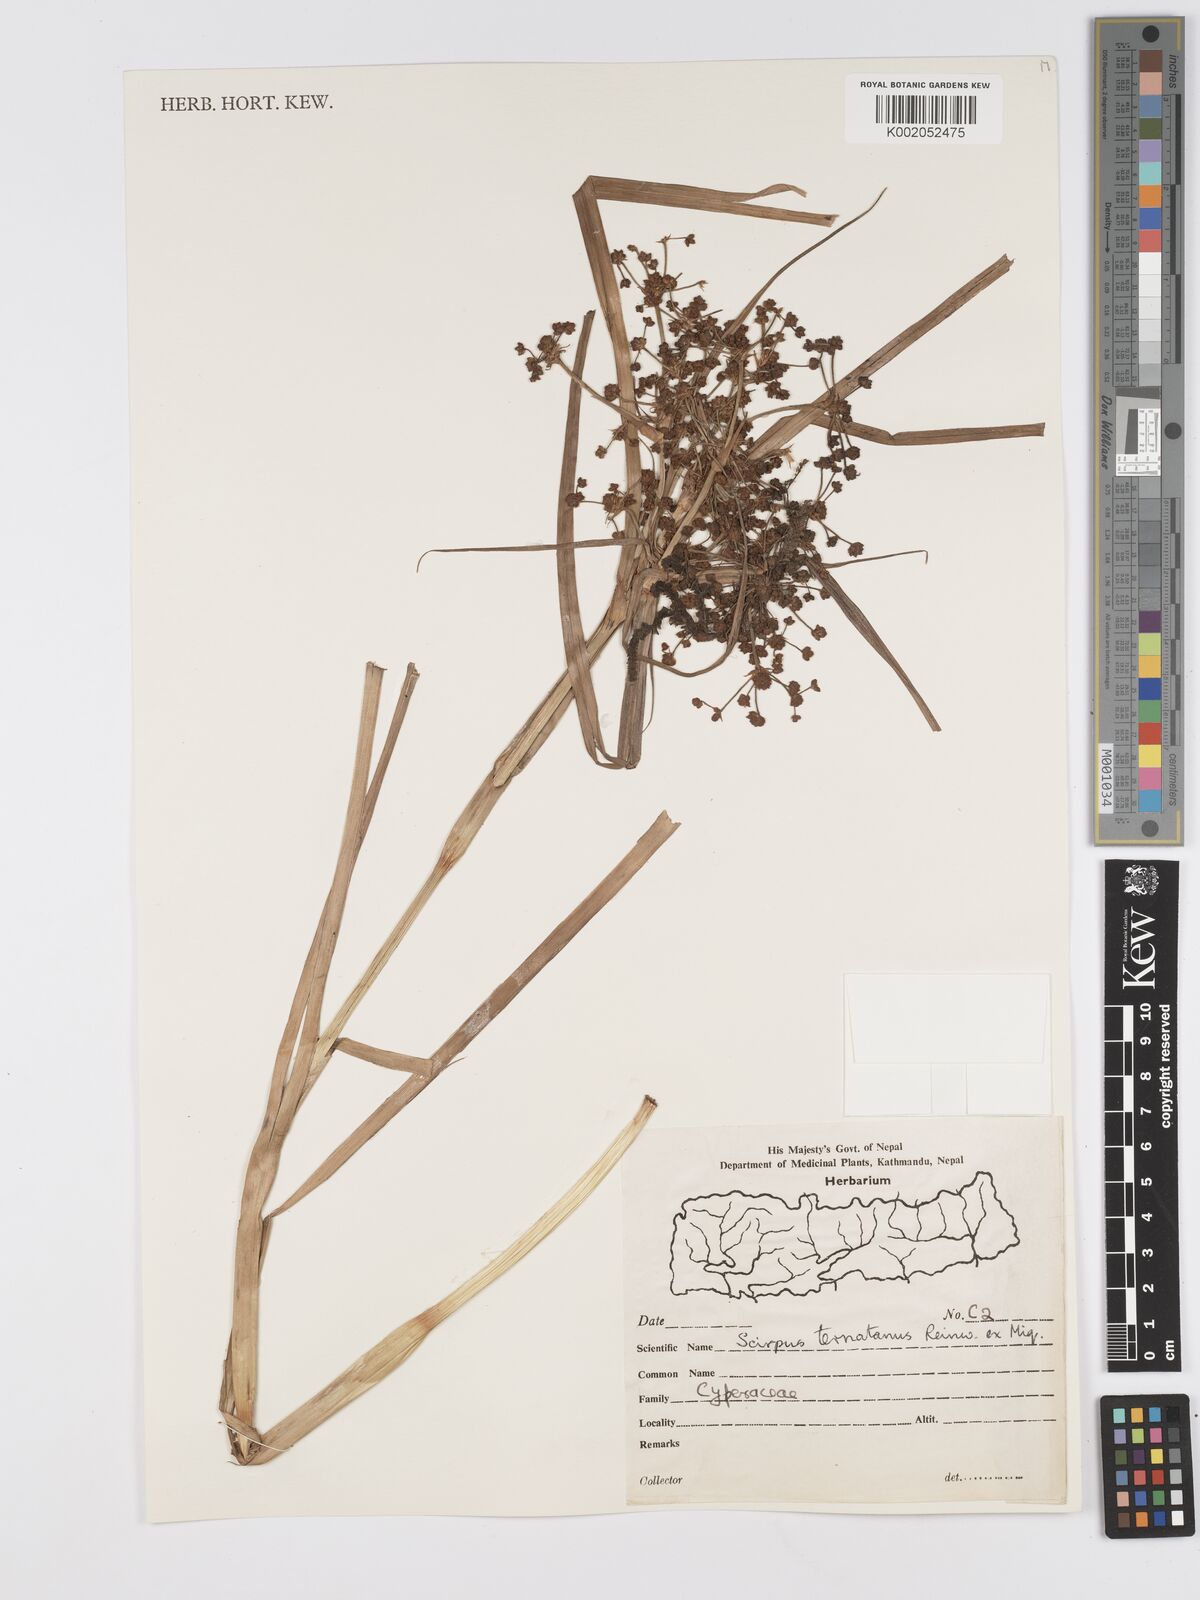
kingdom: Plantae
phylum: Tracheophyta
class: Liliopsida
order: Poales
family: Cyperaceae
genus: Scirpus
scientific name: Scirpus ternatanus
